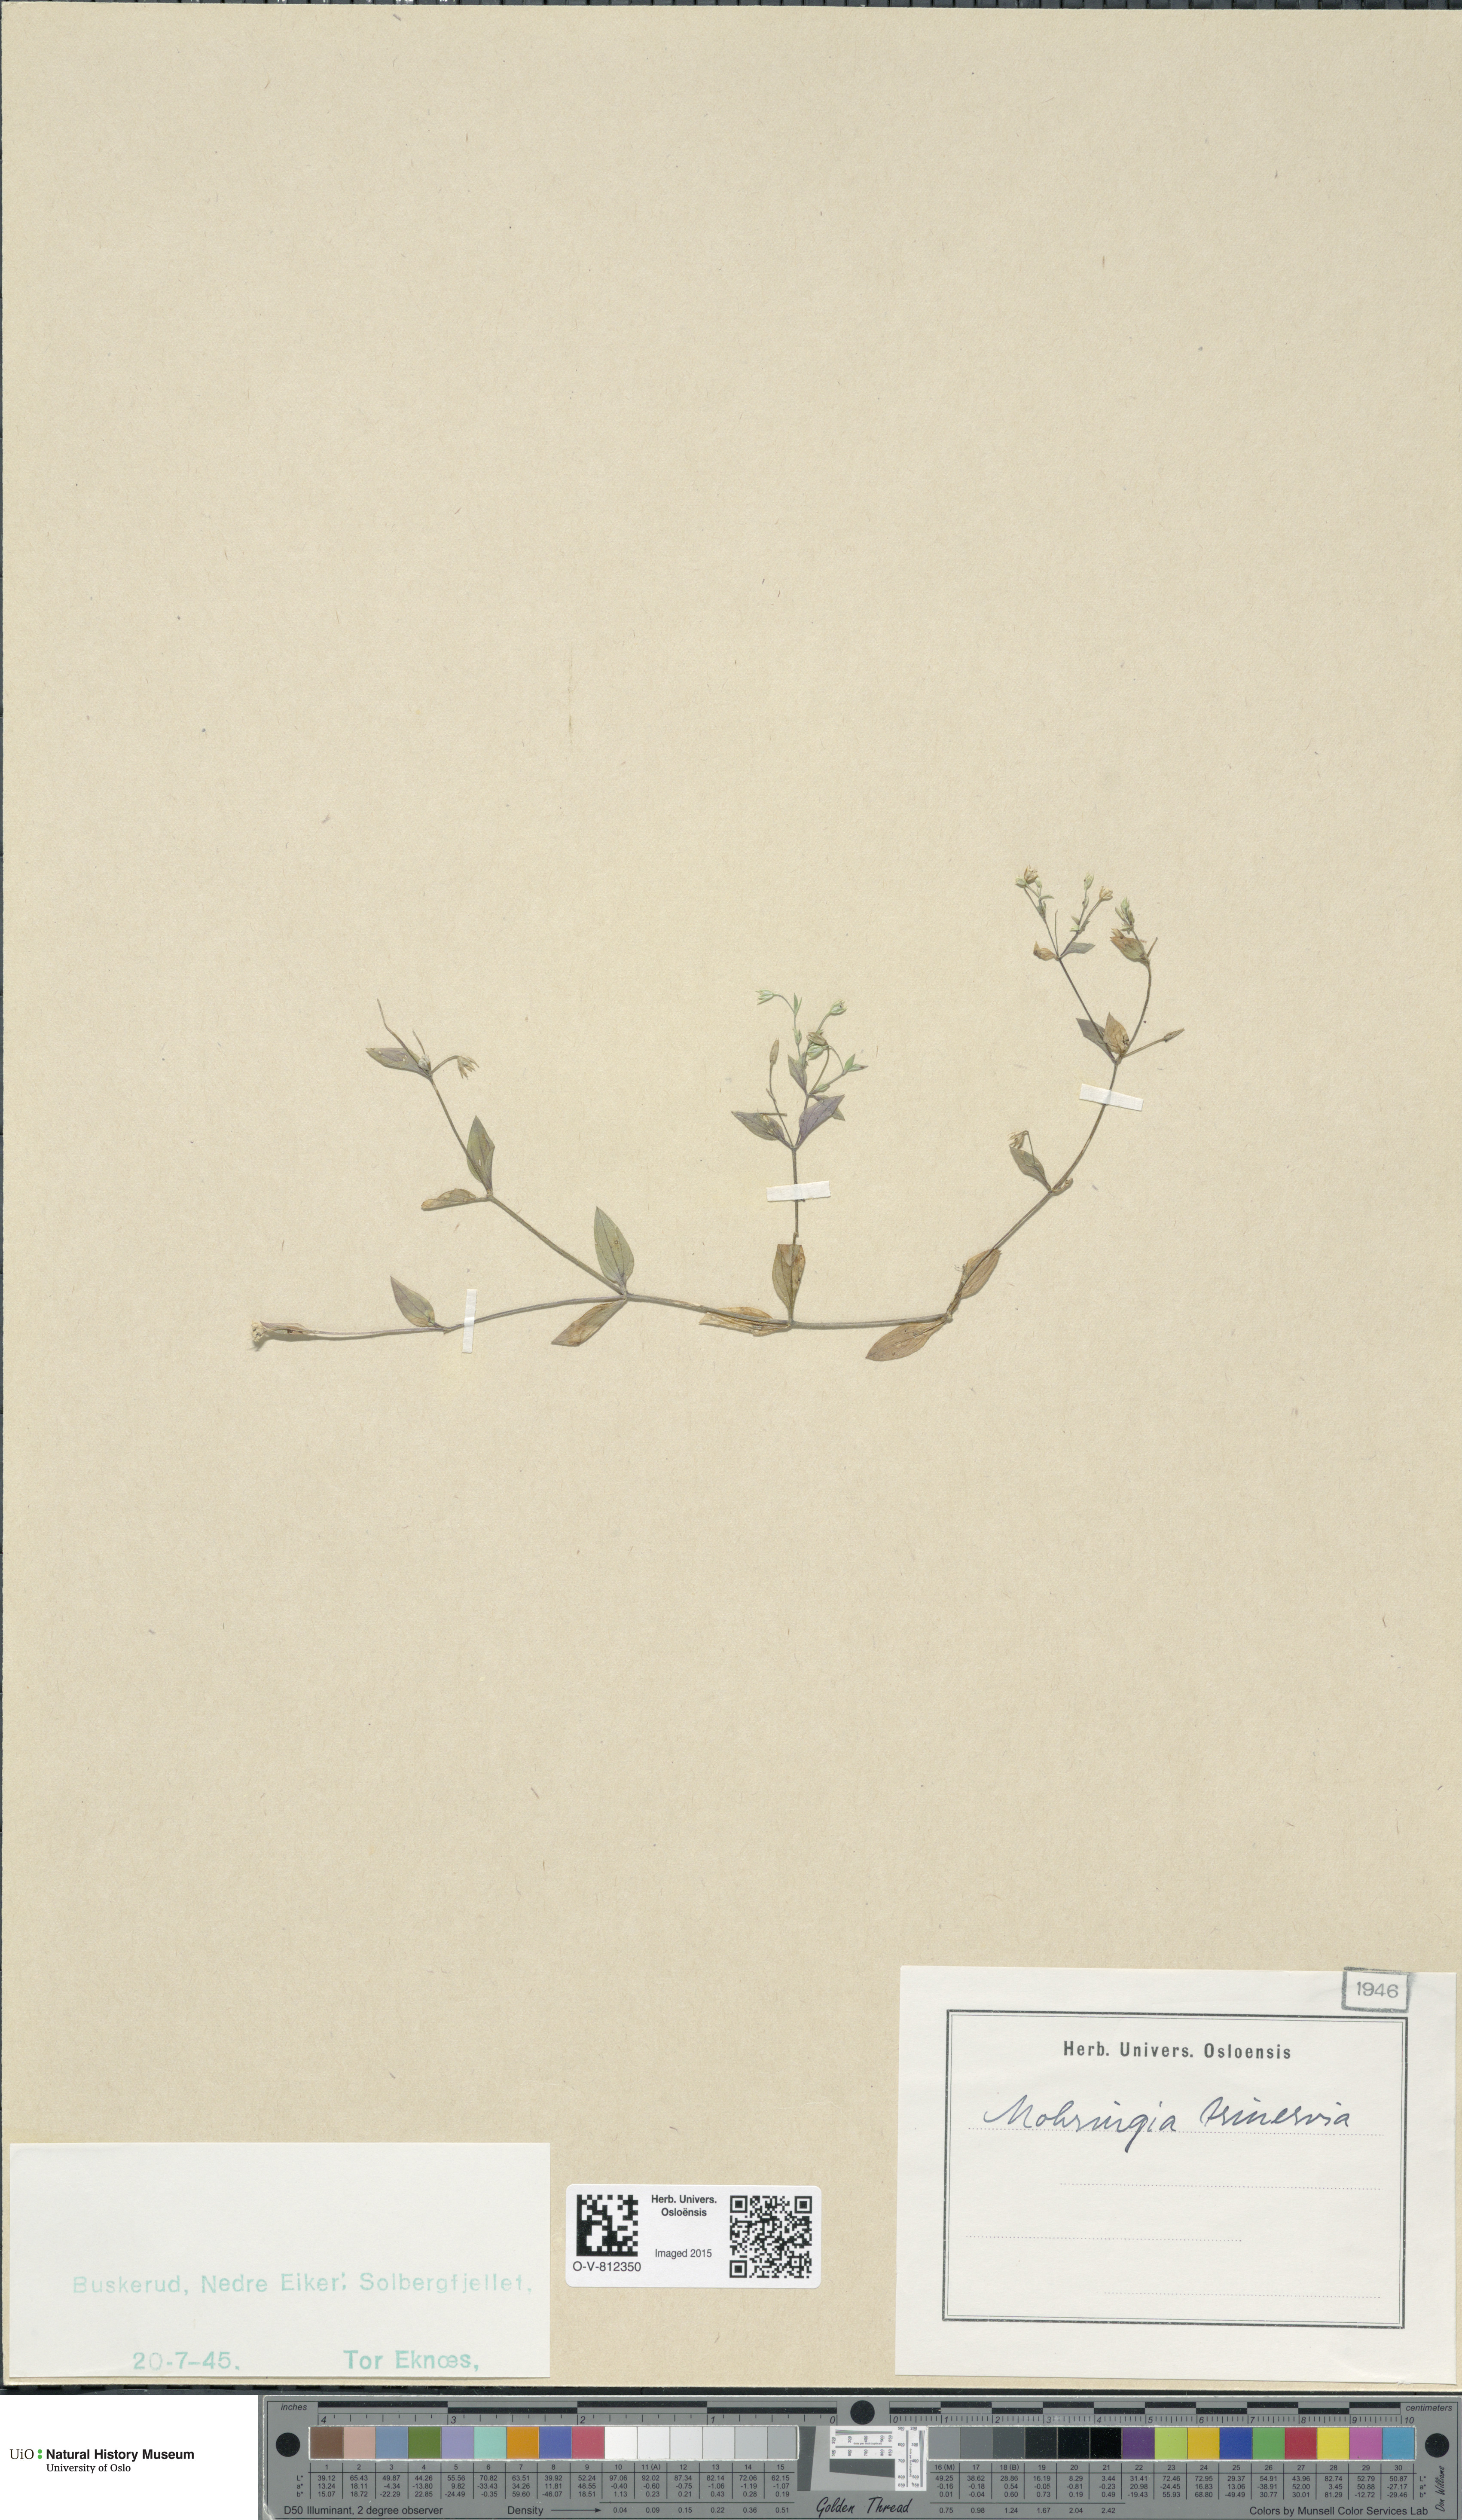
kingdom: Plantae
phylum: Tracheophyta
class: Magnoliopsida
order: Caryophyllales
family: Caryophyllaceae
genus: Moehringia
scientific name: Moehringia trinervia
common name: Three-nerved sandwort
